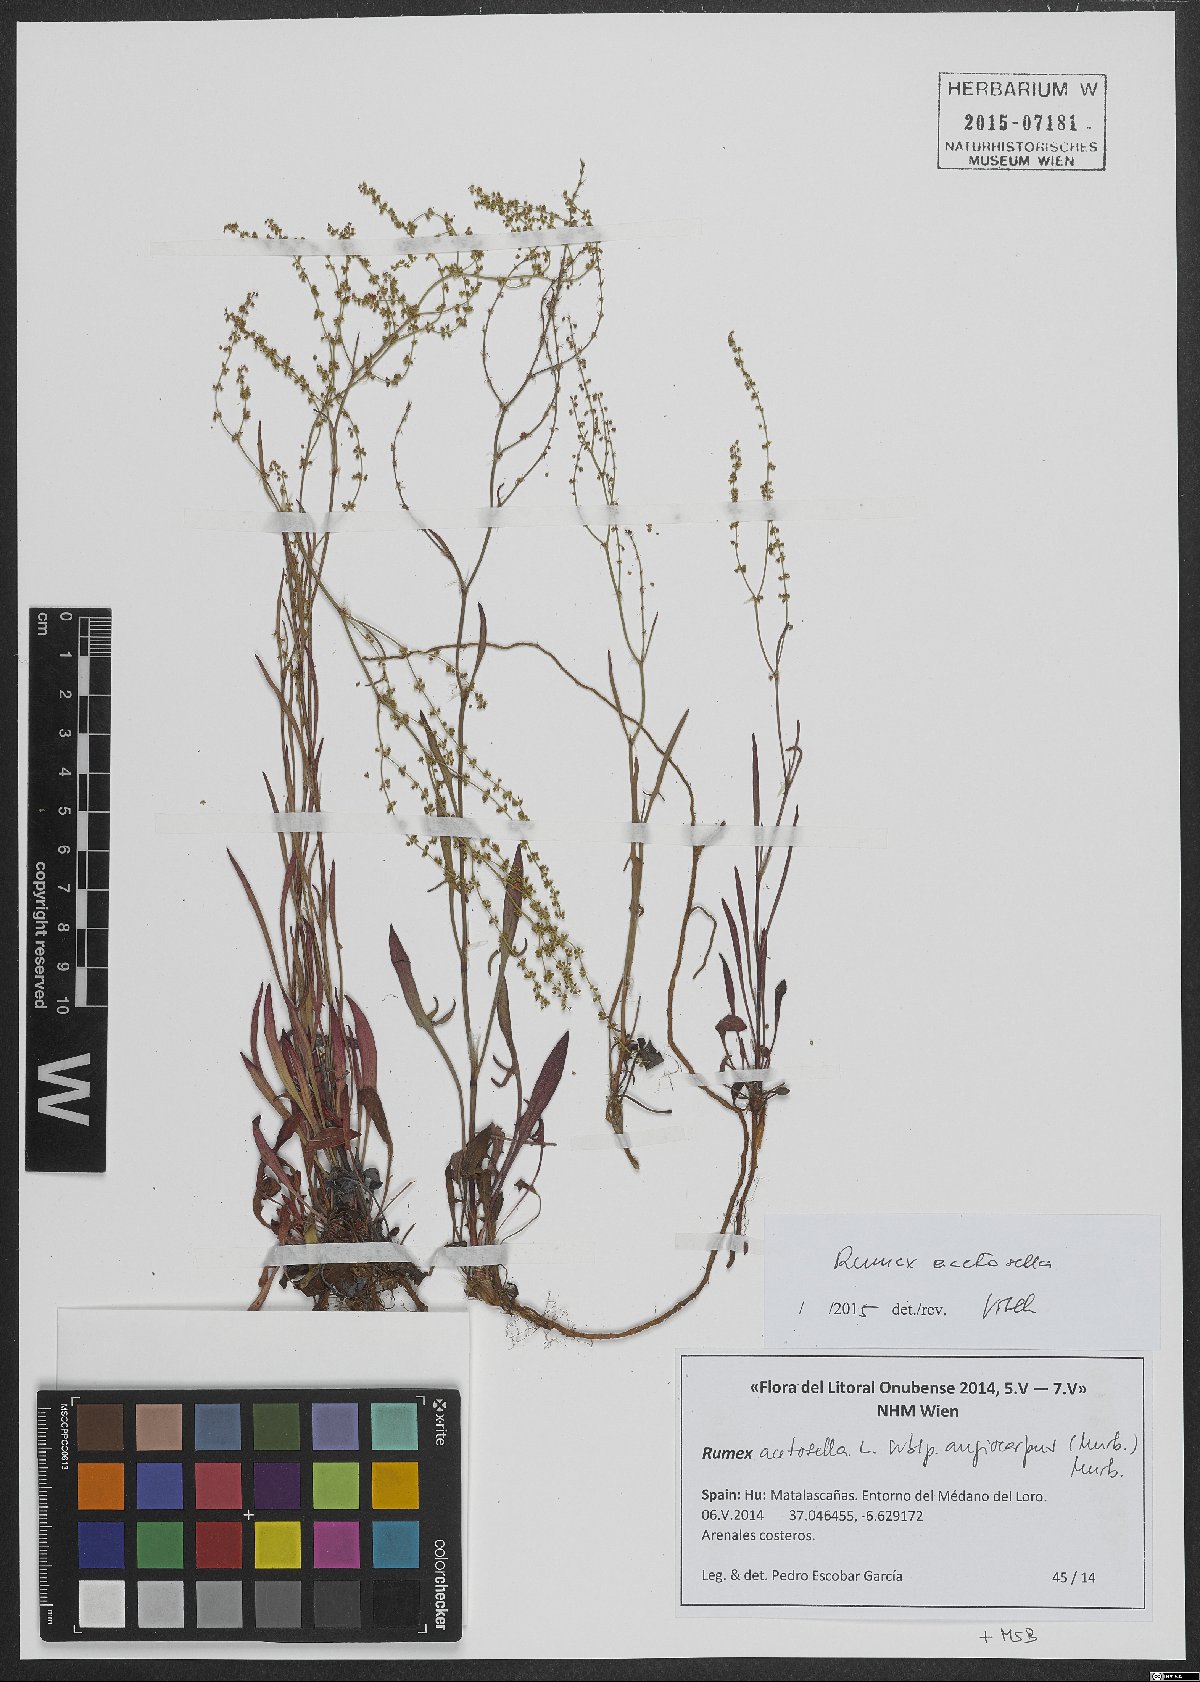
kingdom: Plantae
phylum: Tracheophyta
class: Magnoliopsida
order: Caryophyllales
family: Polygonaceae
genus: Rumex
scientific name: Rumex acetosella
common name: Common sheep sorrel
